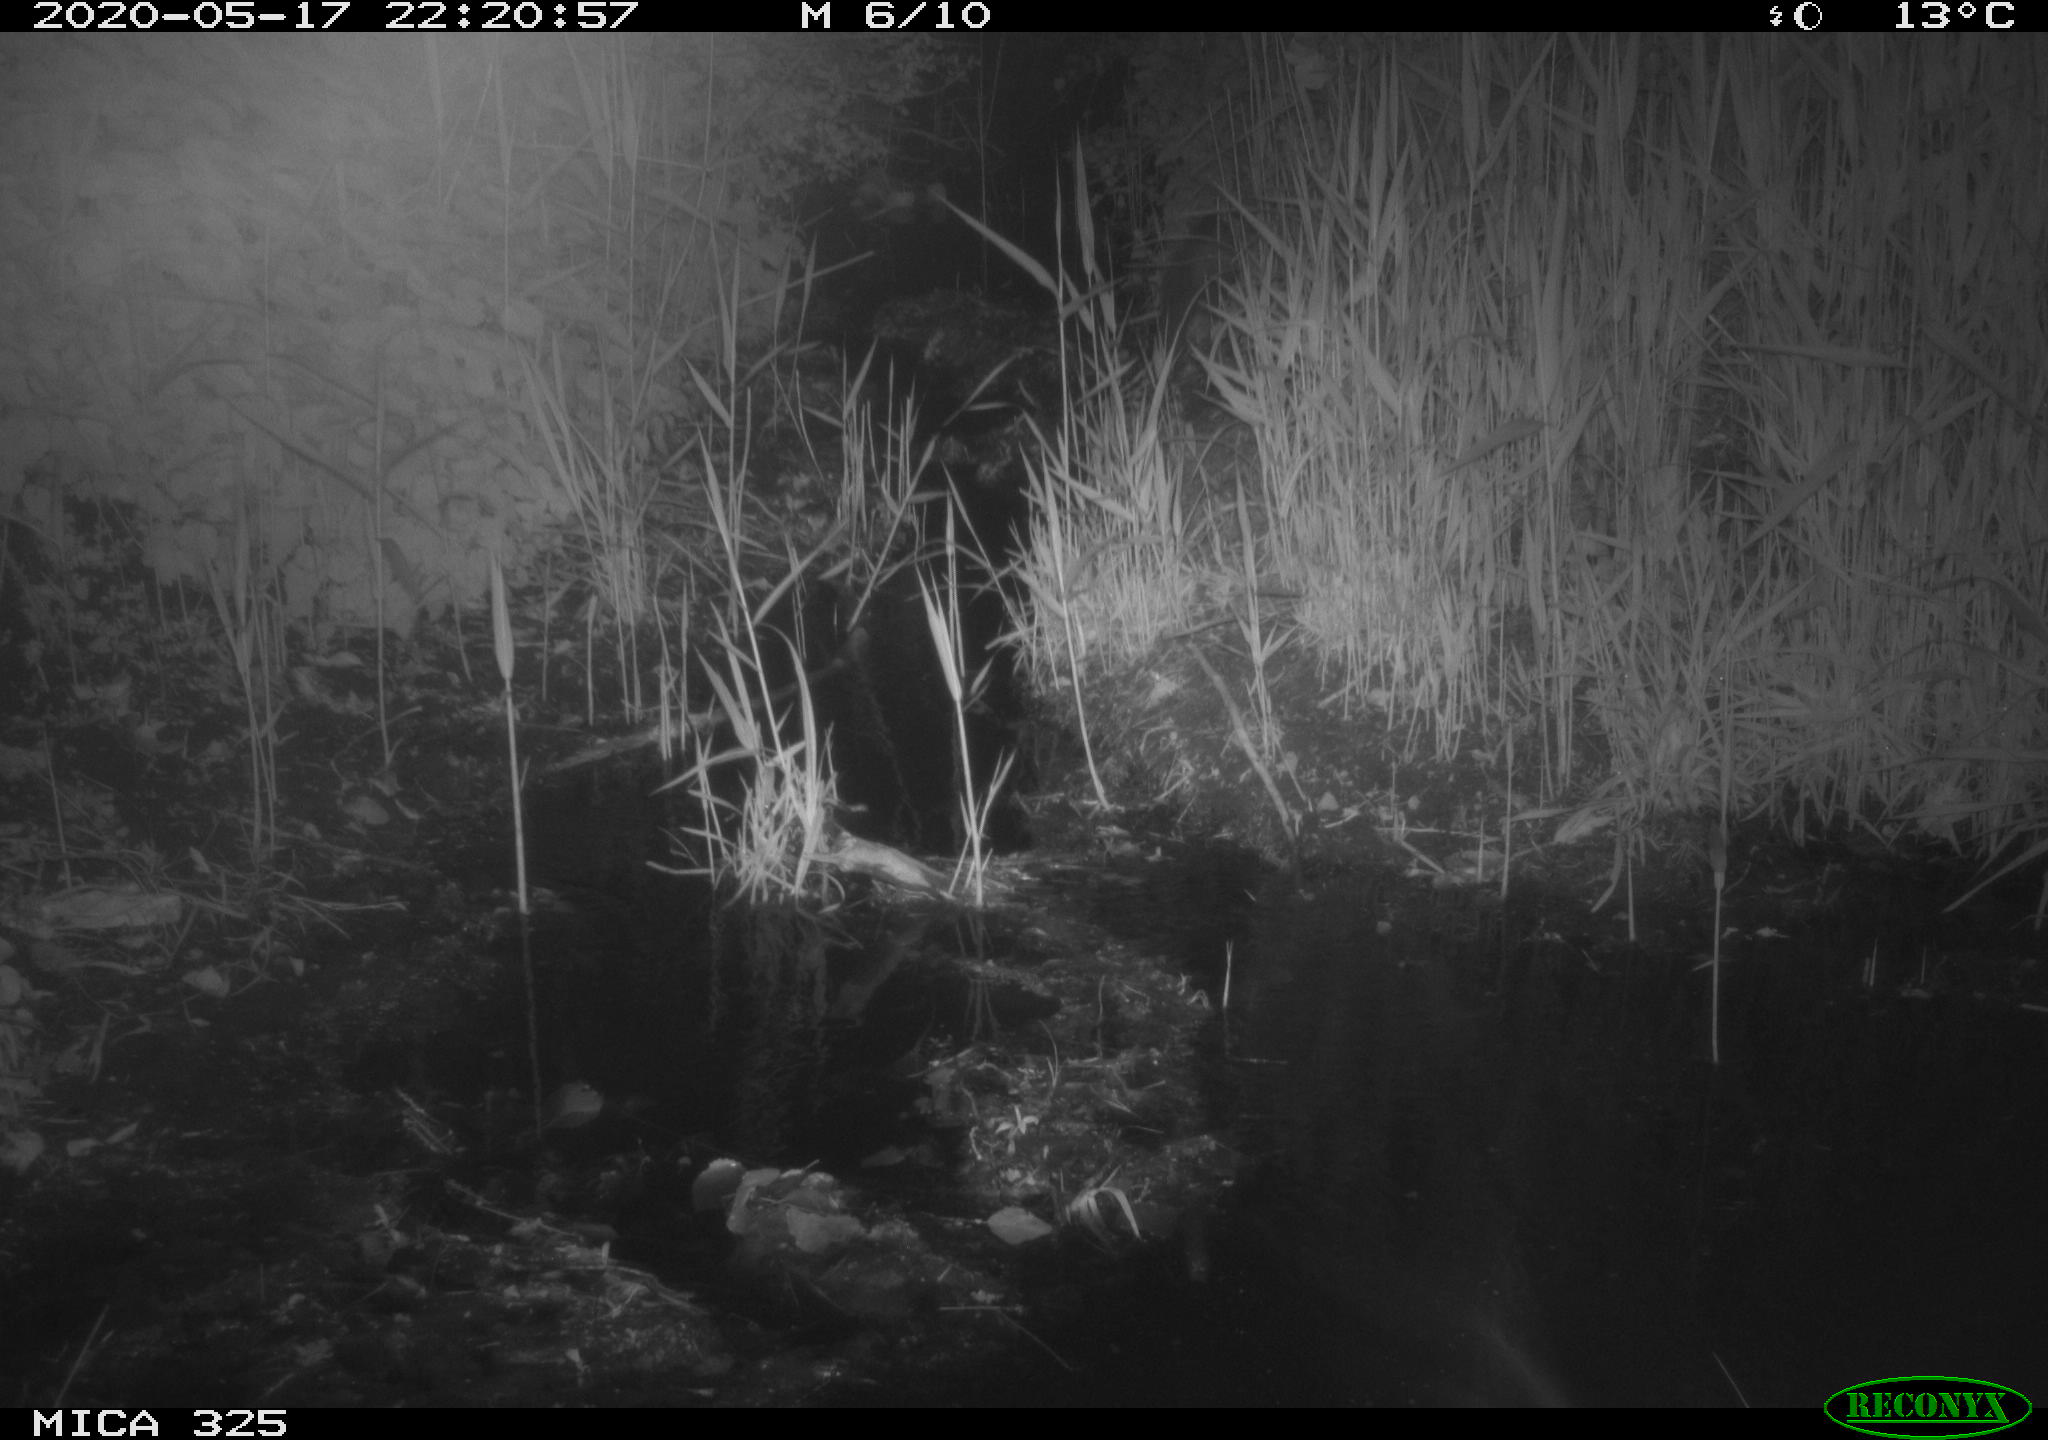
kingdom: Animalia
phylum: Chordata
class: Mammalia
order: Carnivora
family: Mustelidae
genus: Martes
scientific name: Martes foina
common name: Beech marten
